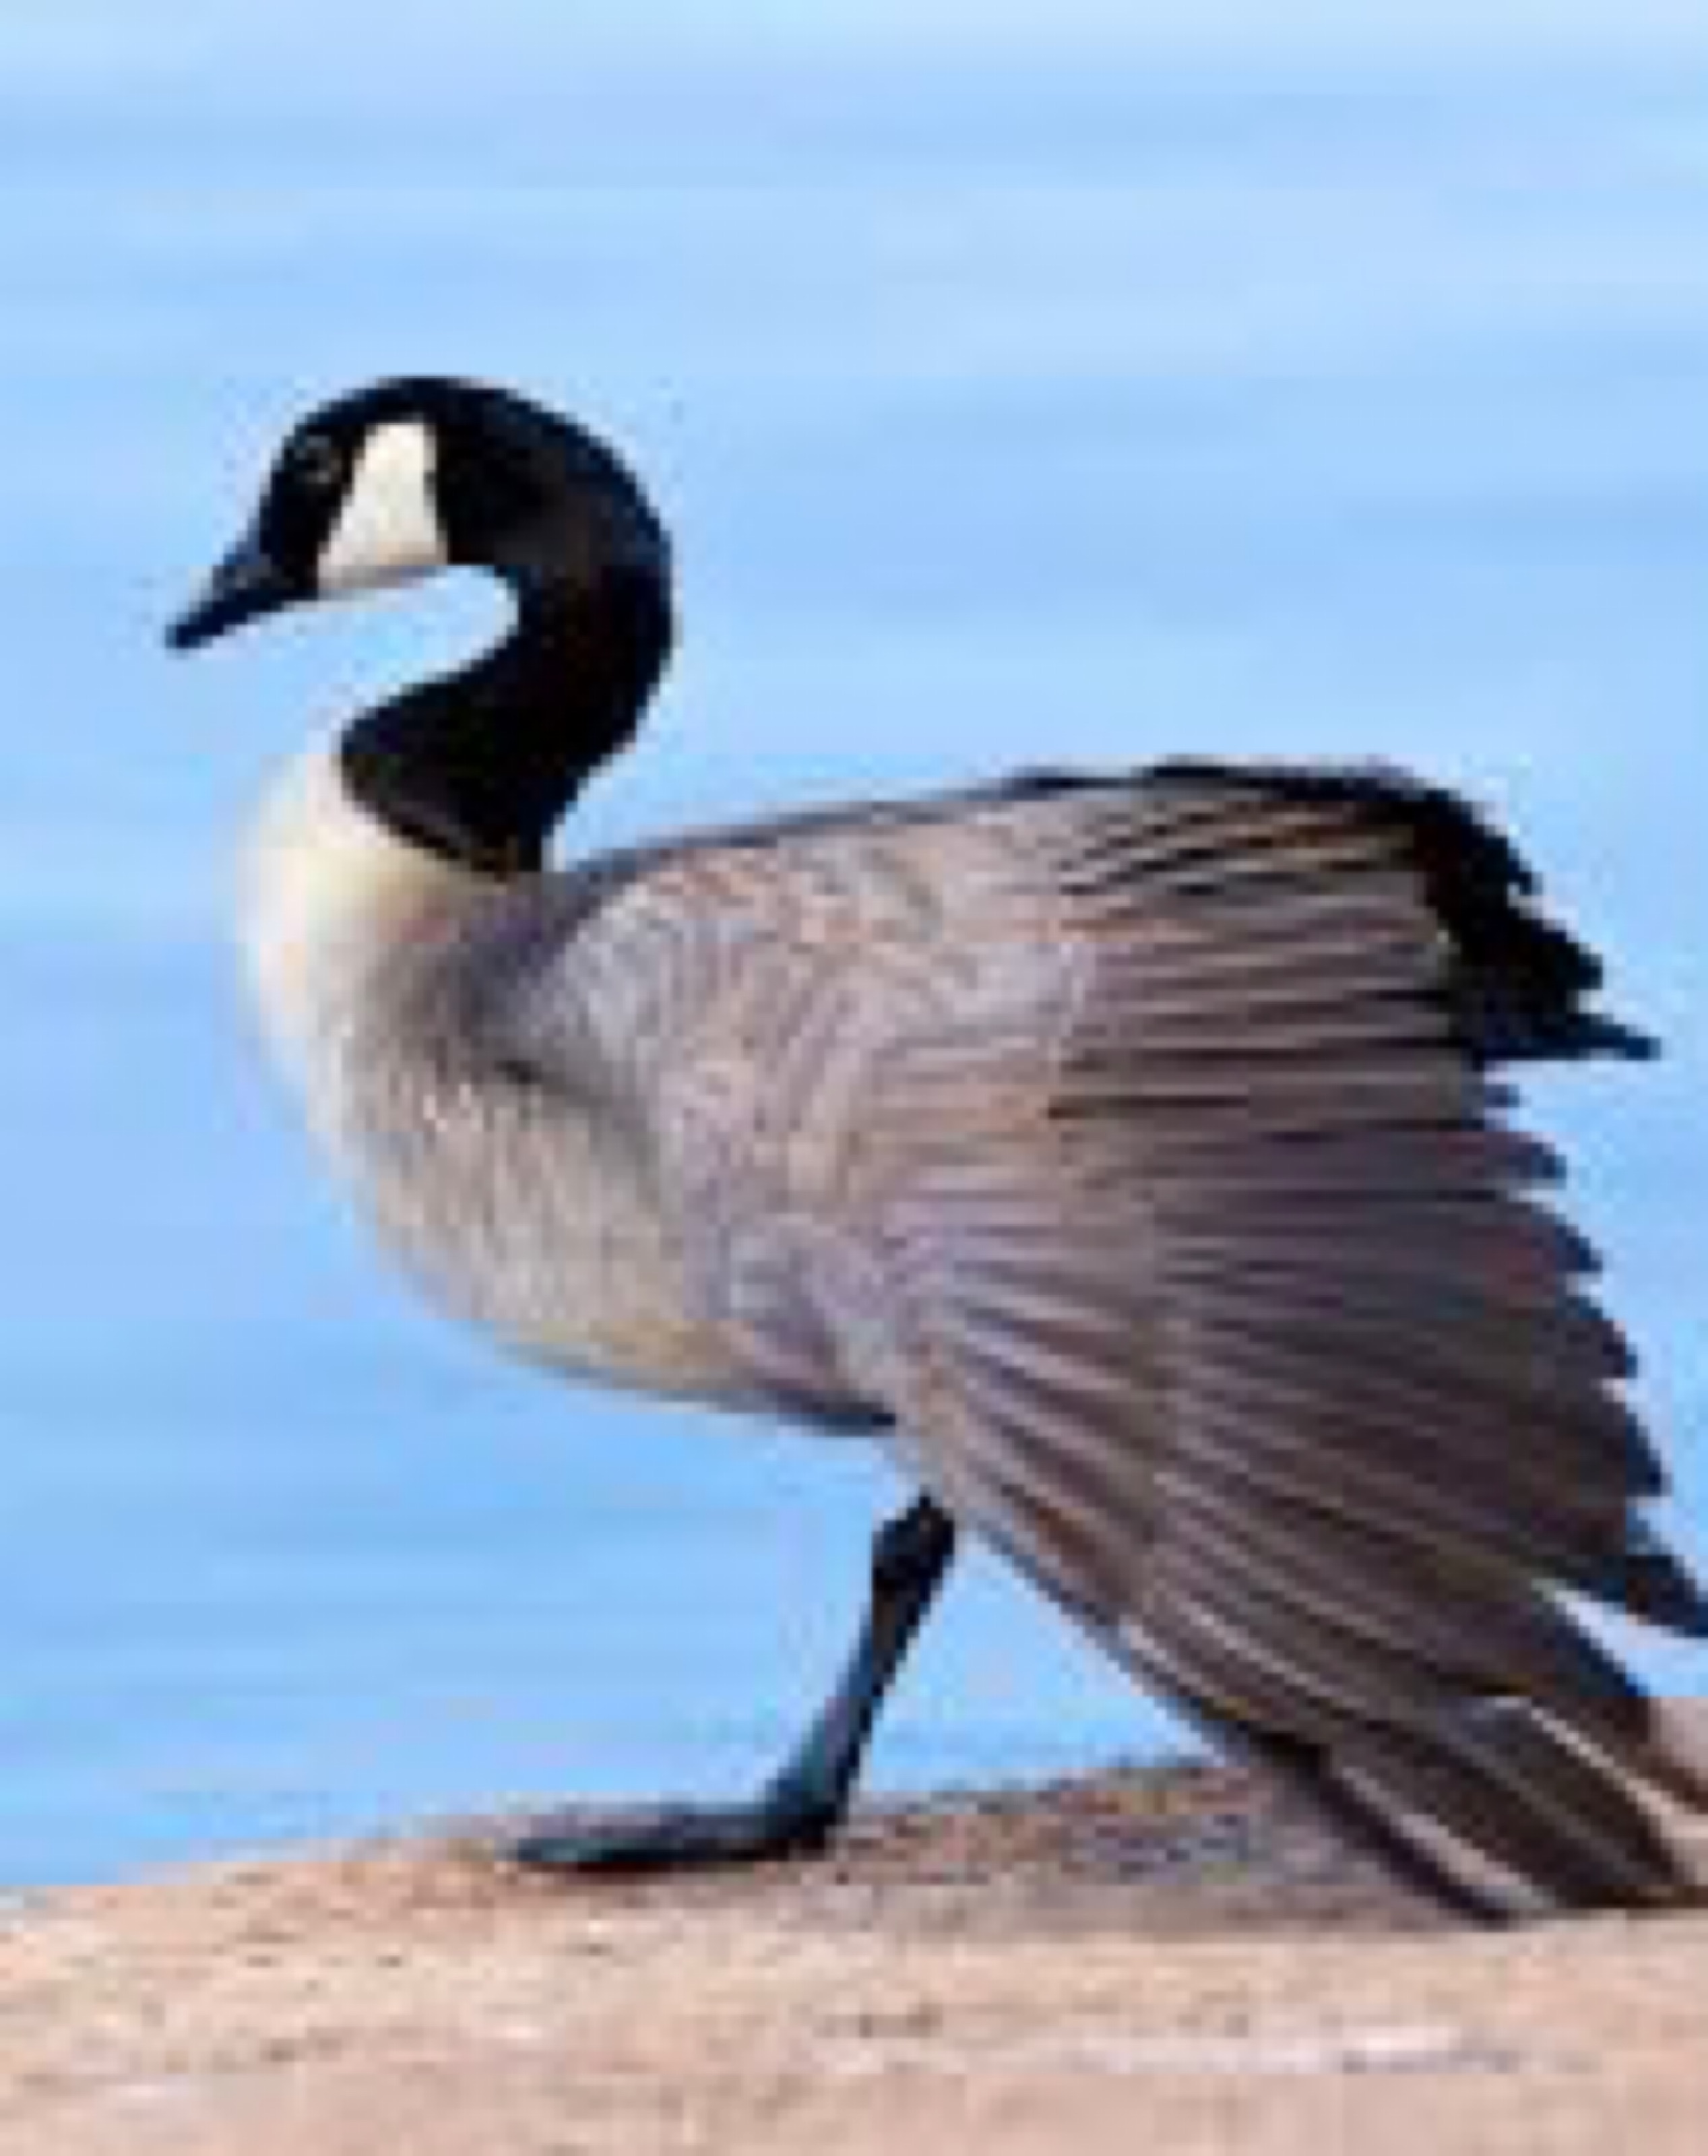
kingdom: Animalia
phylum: Chordata
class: Aves
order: Anseriformes
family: Anatidae
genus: Branta
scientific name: Branta canadensis
